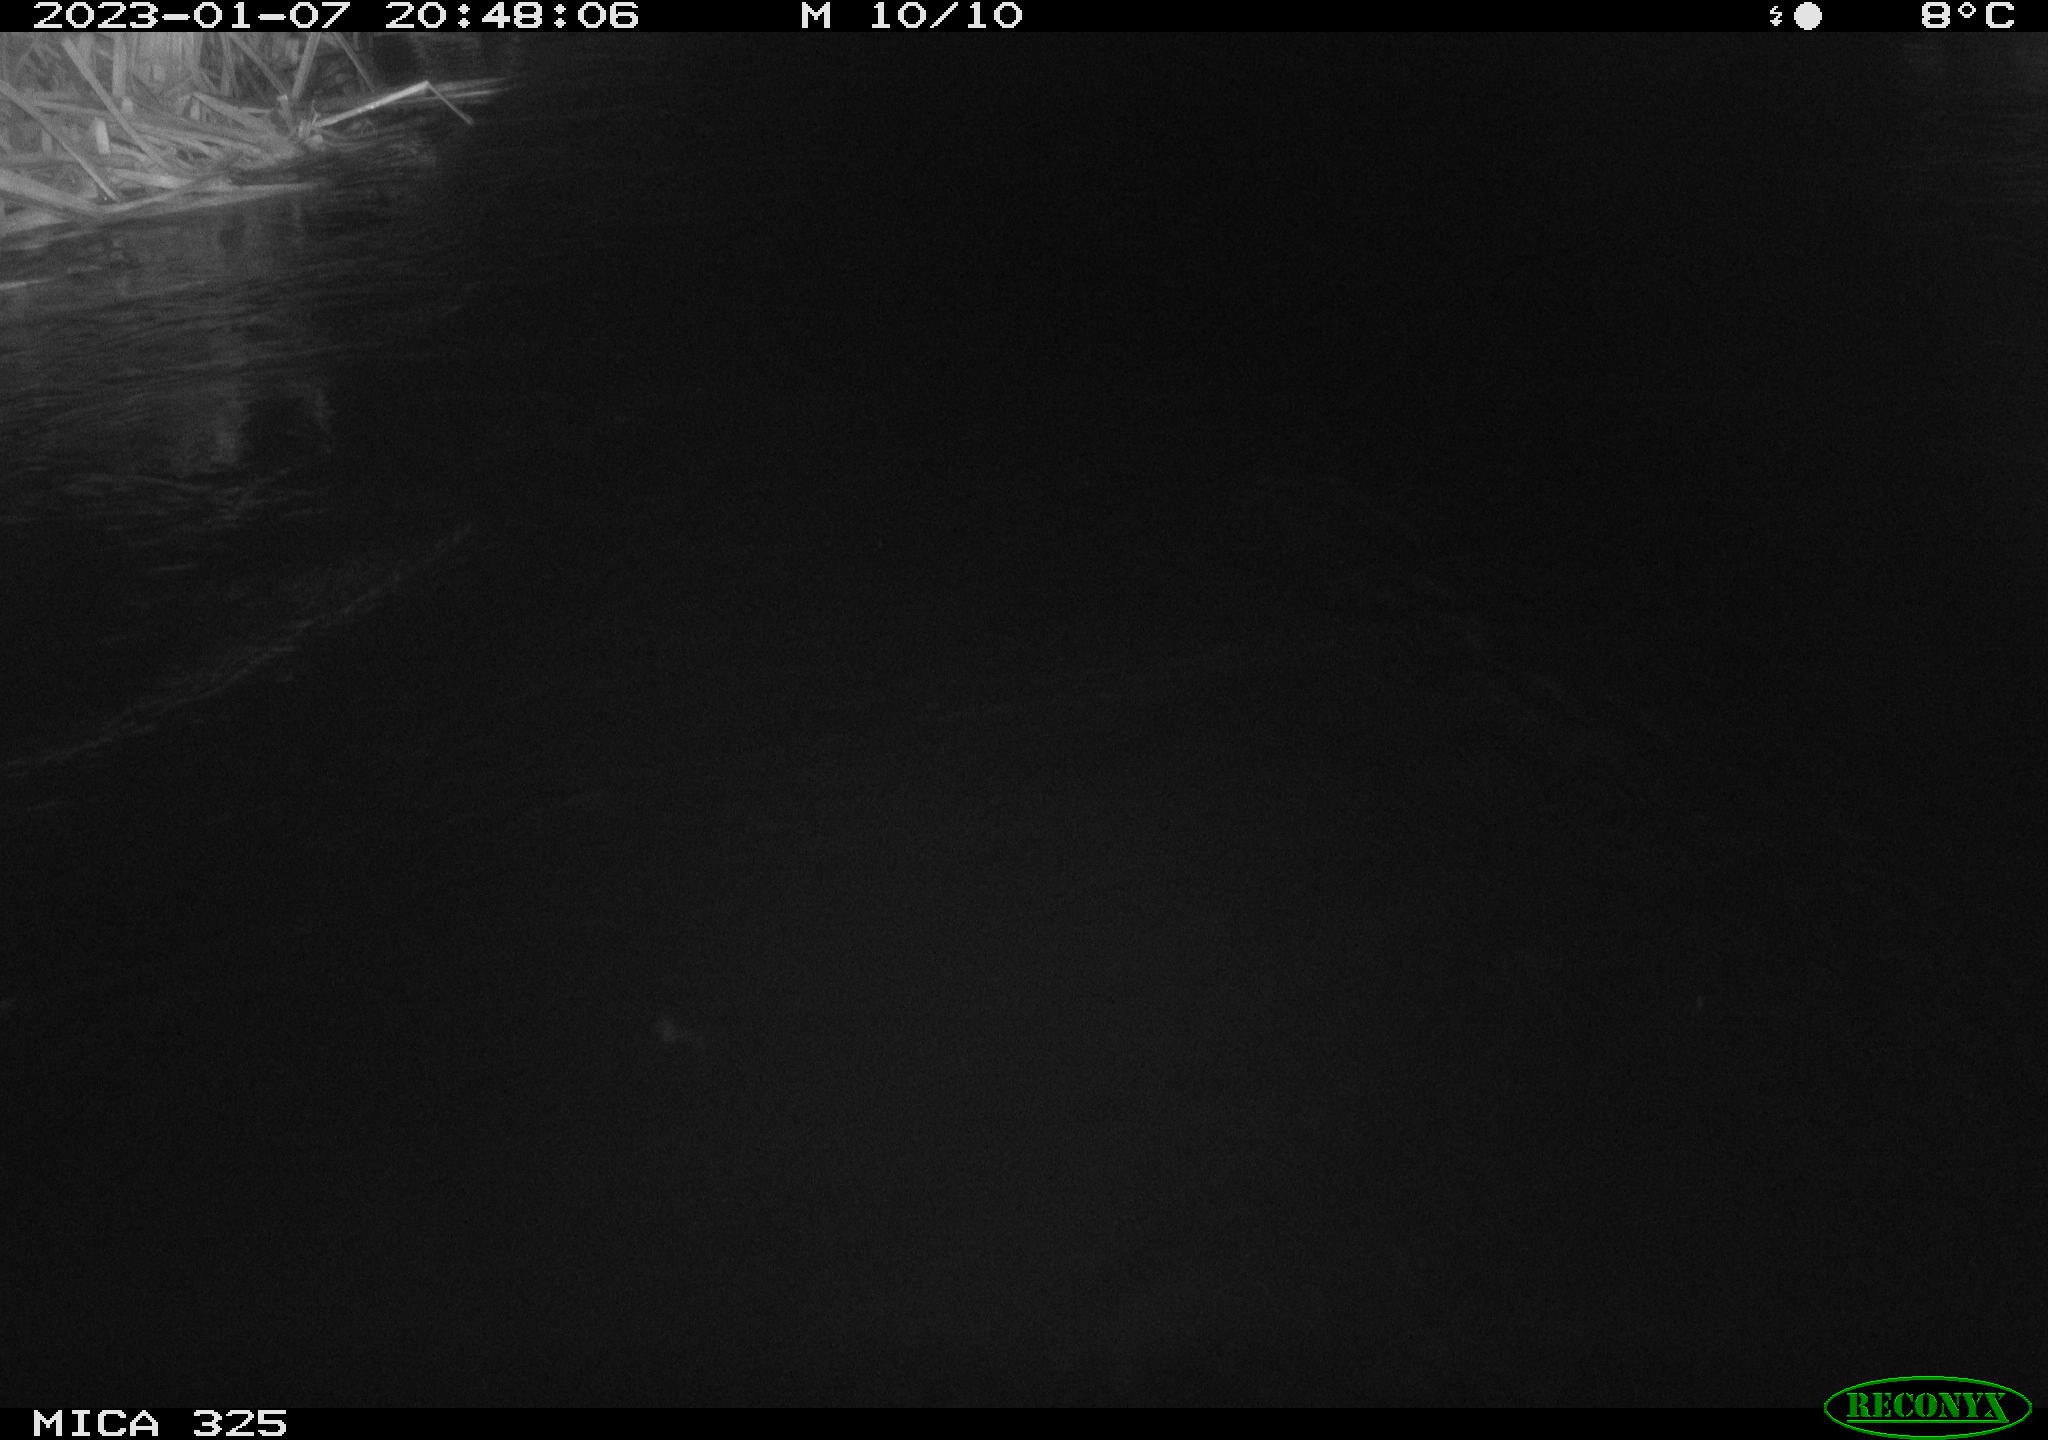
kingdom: Animalia
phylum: Chordata
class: Mammalia
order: Rodentia
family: Cricetidae
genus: Ondatra
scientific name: Ondatra zibethicus
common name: Muskrat
